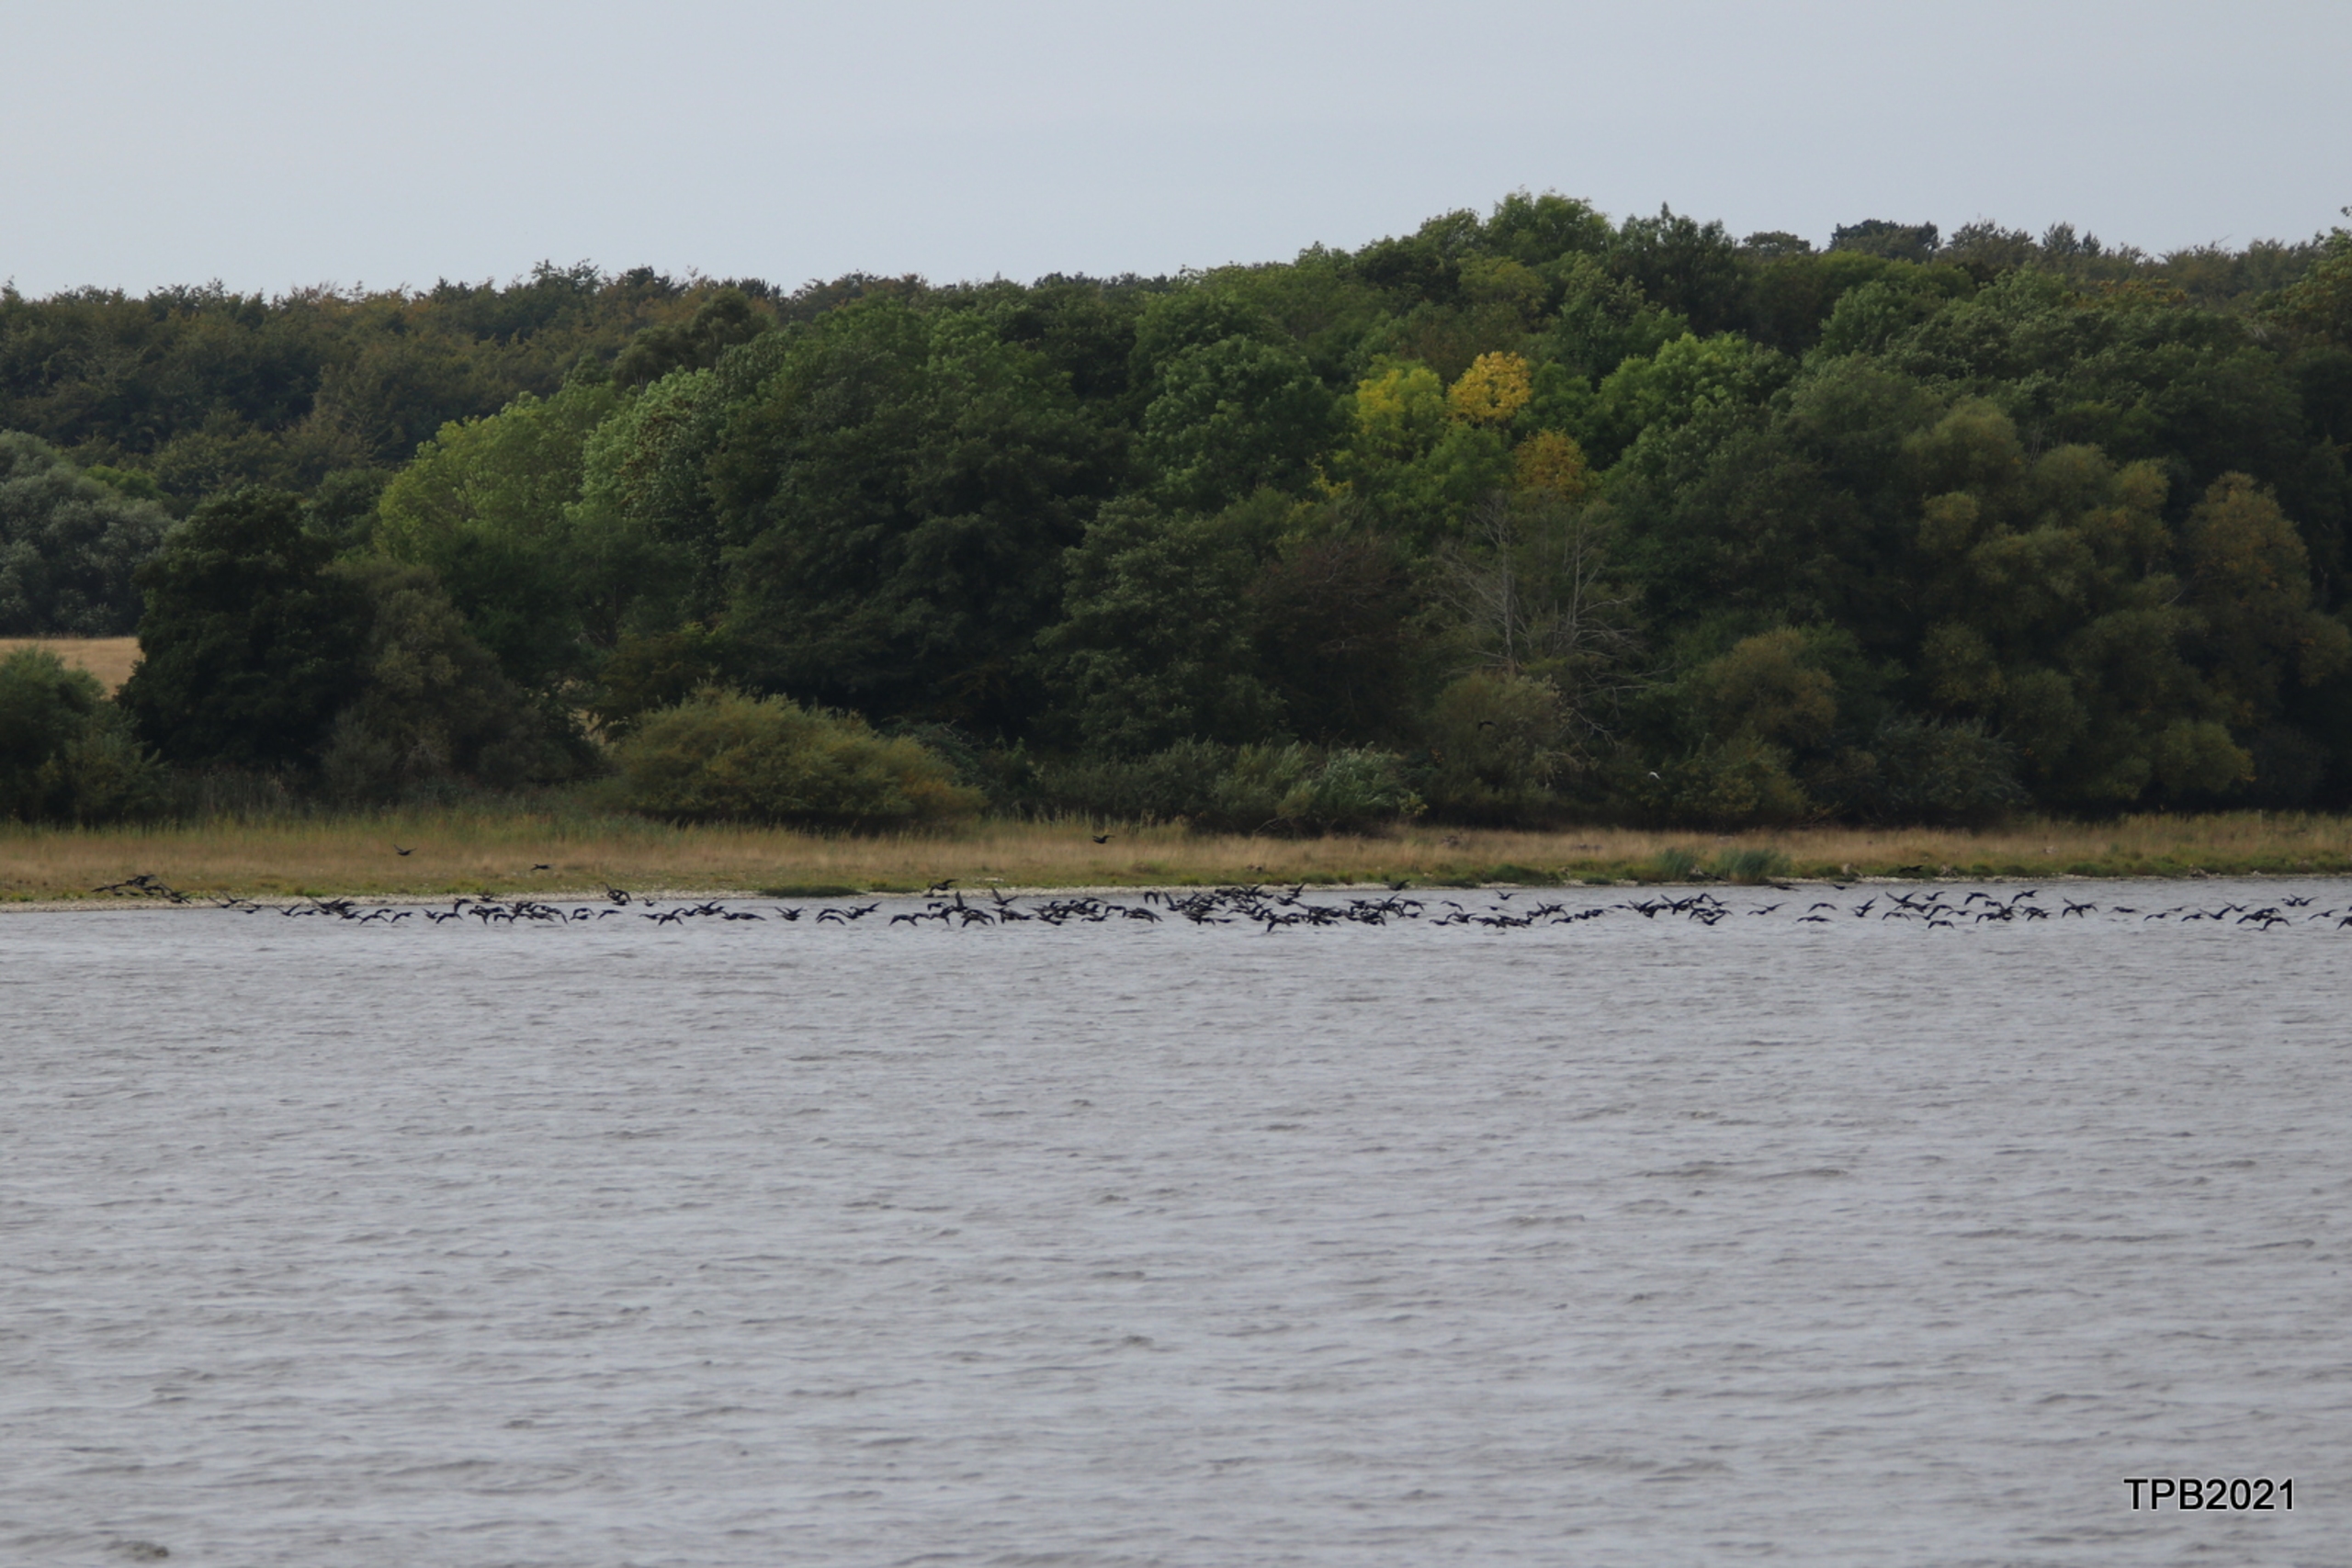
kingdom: Animalia
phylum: Chordata
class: Aves
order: Suliformes
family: Phalacrocoracidae
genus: Phalacrocorax
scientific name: Phalacrocorax carbo
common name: Skarv
